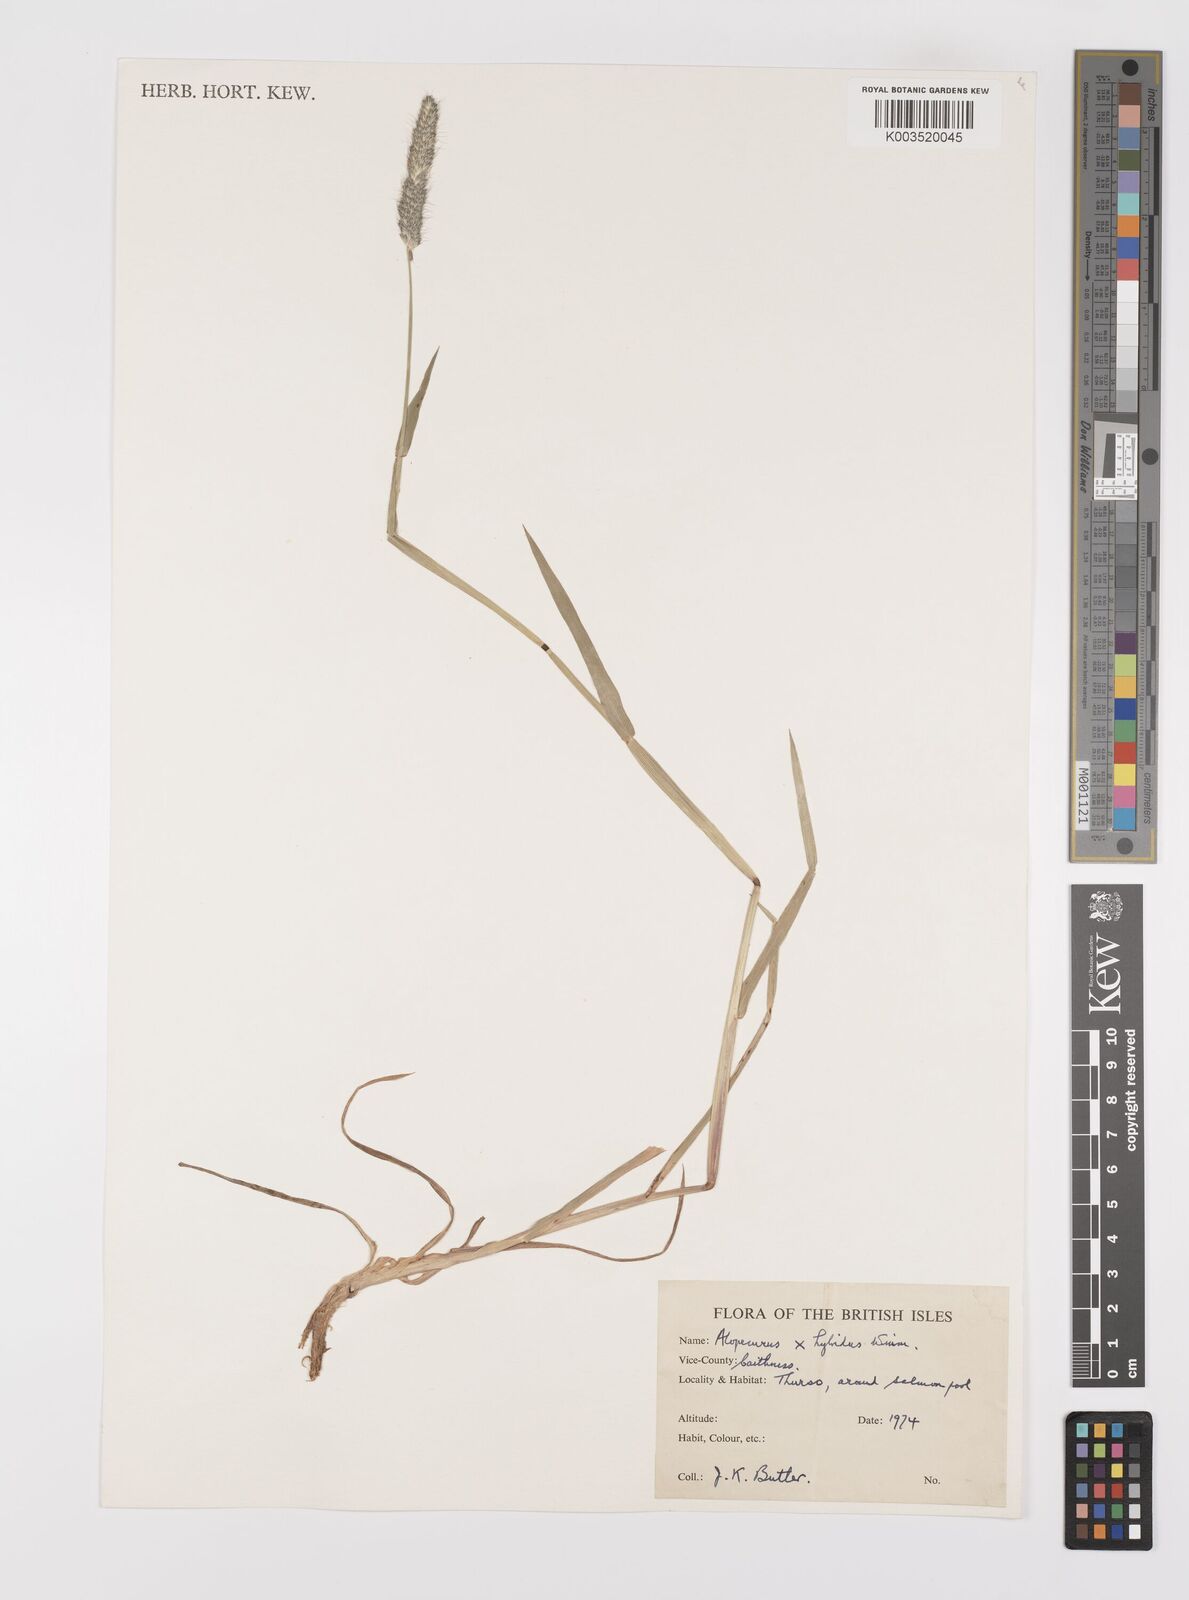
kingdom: Plantae
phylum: Tracheophyta
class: Liliopsida
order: Poales
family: Poaceae
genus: Alopecurus
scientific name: Alopecurus brachystylus
